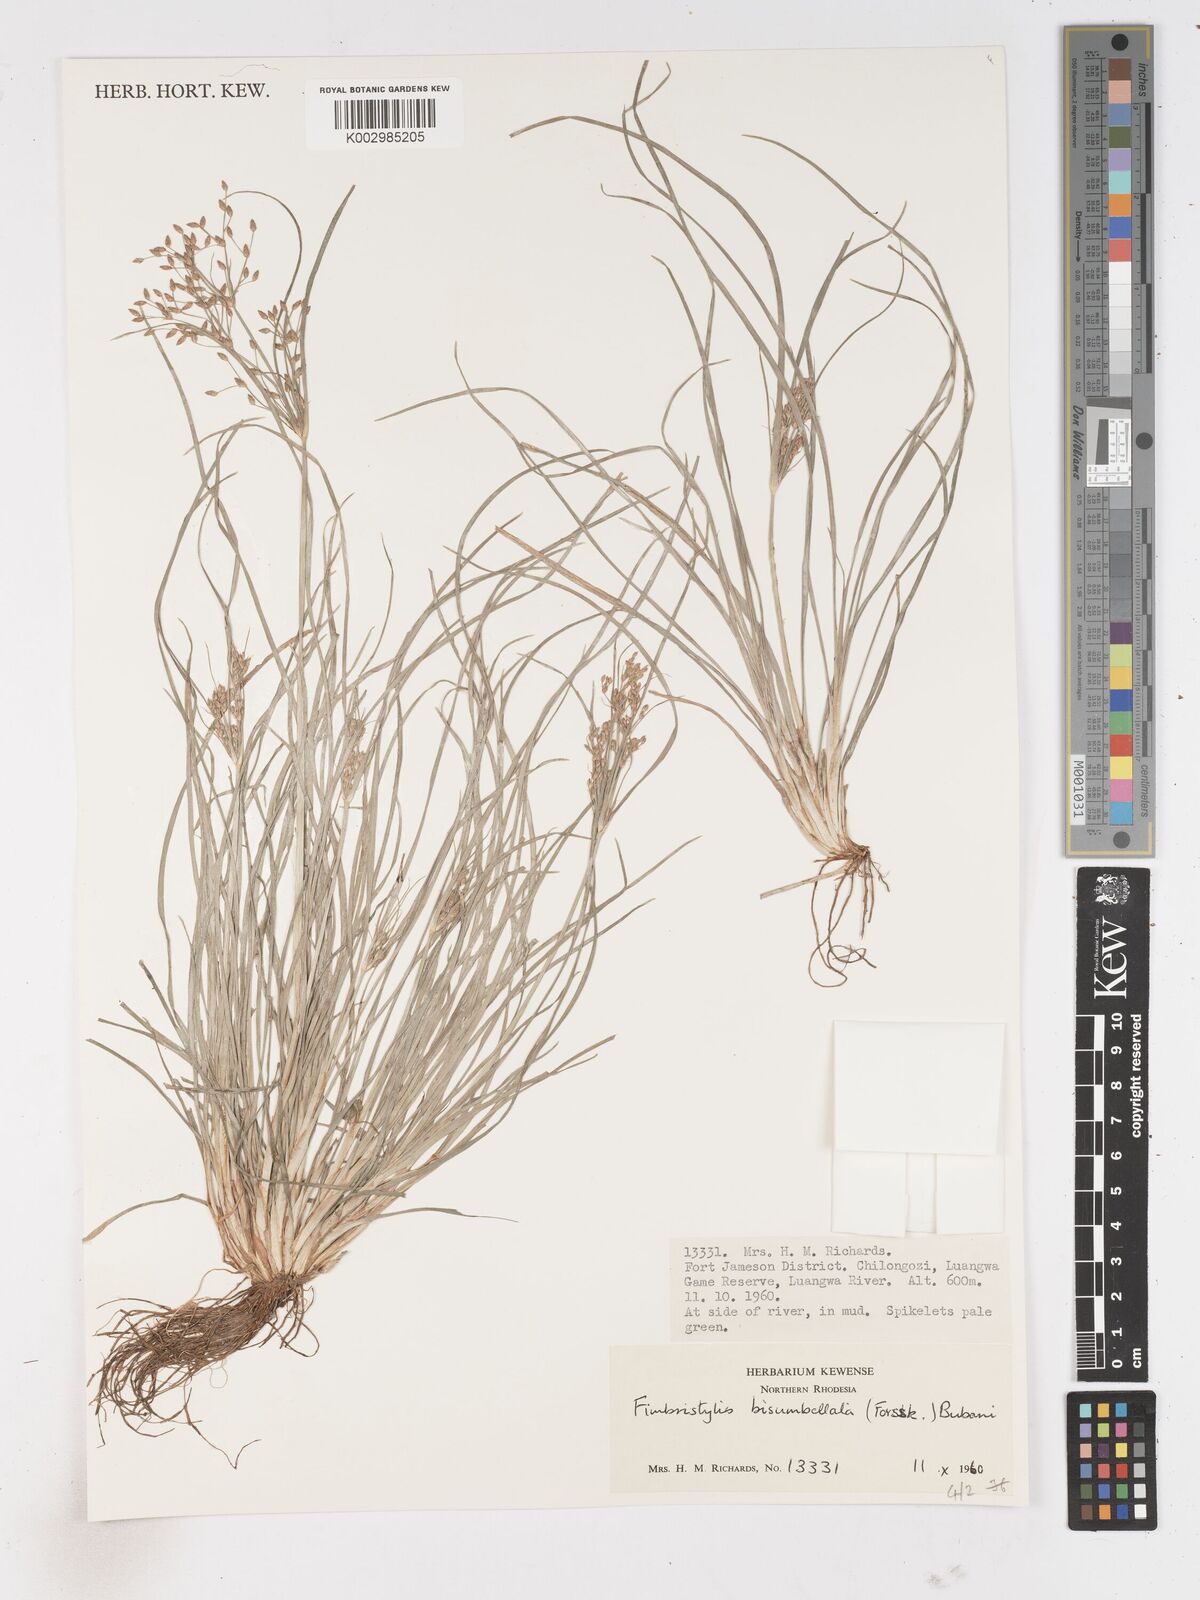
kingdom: Plantae
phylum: Tracheophyta
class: Liliopsida
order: Poales
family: Cyperaceae
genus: Fimbristylis
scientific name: Fimbristylis bisumbellata
